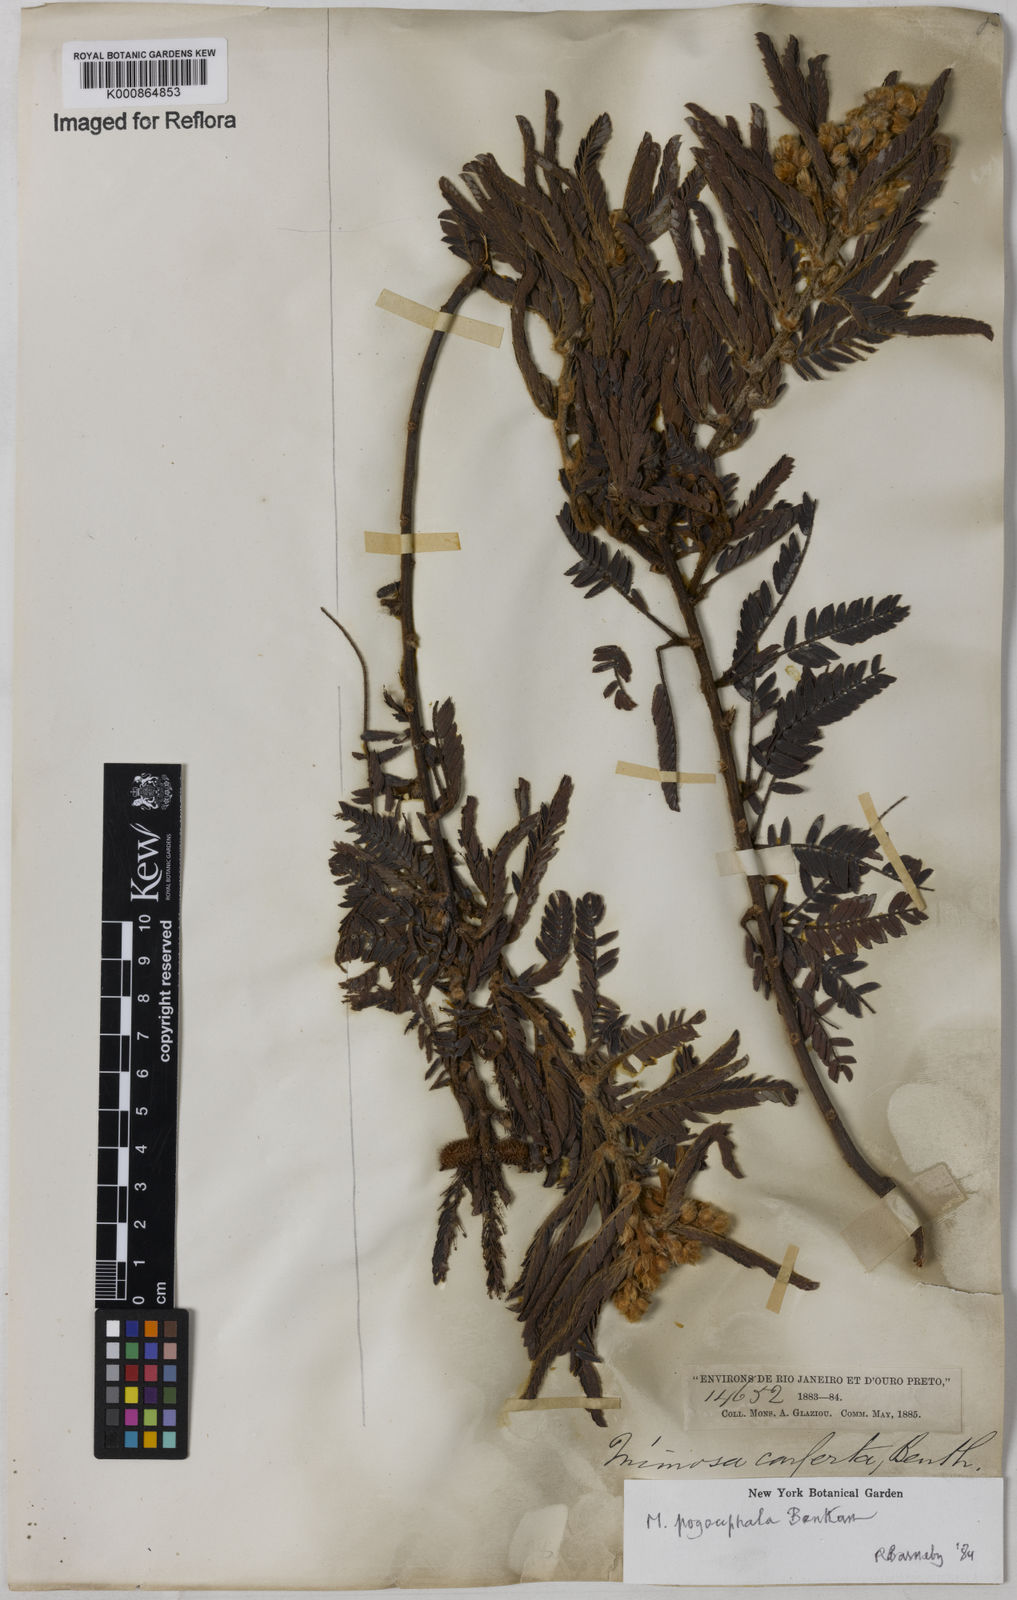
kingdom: Plantae
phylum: Tracheophyta
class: Magnoliopsida
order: Fabales
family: Fabaceae
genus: Mimosa
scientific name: Mimosa pogocephala
